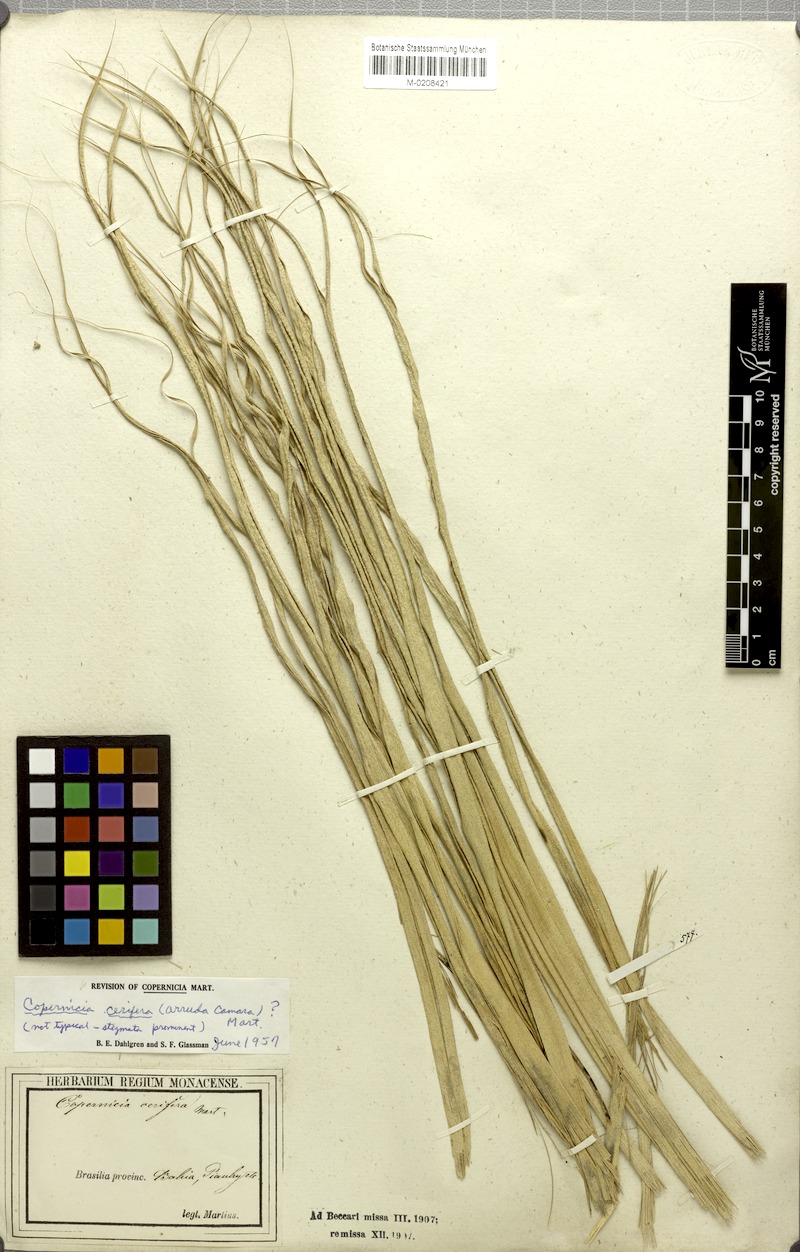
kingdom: Plantae
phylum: Tracheophyta
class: Liliopsida
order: Arecales
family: Arecaceae
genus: Copernicia
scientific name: Copernicia prunifera
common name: Carnauba palm
